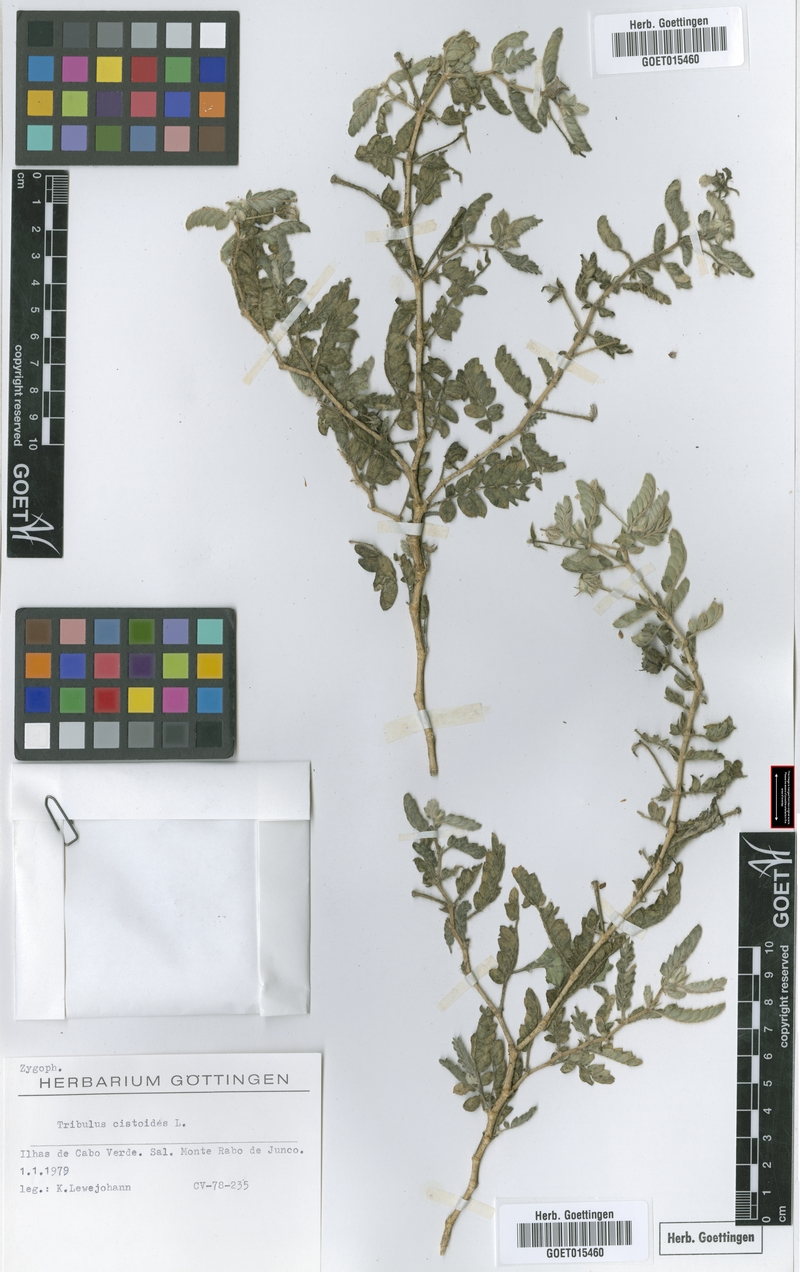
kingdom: Plantae
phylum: Tracheophyta
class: Magnoliopsida
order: Zygophyllales
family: Zygophyllaceae
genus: Tribulus
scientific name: Tribulus cistoides
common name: Jamaican feverplant
